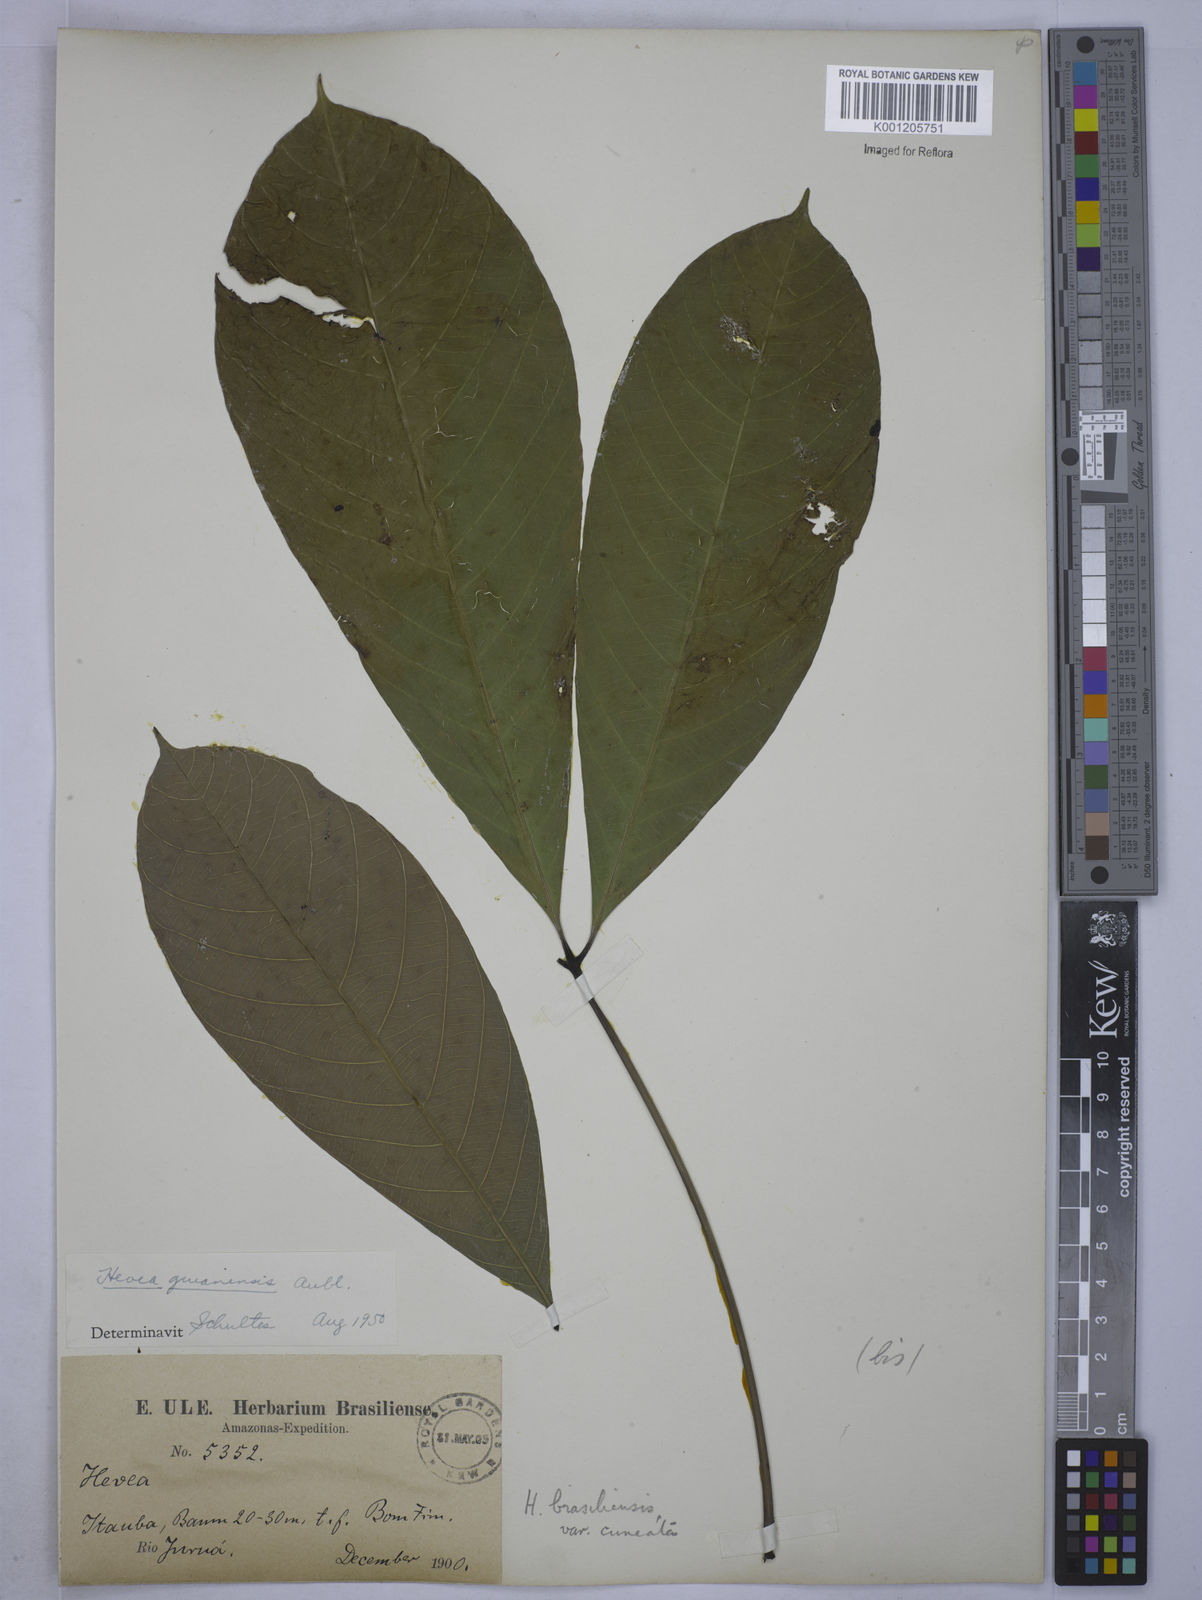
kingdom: Plantae
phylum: Tracheophyta
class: Magnoliopsida
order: Malpighiales
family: Euphorbiaceae
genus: Hevea
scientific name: Hevea guianensis
